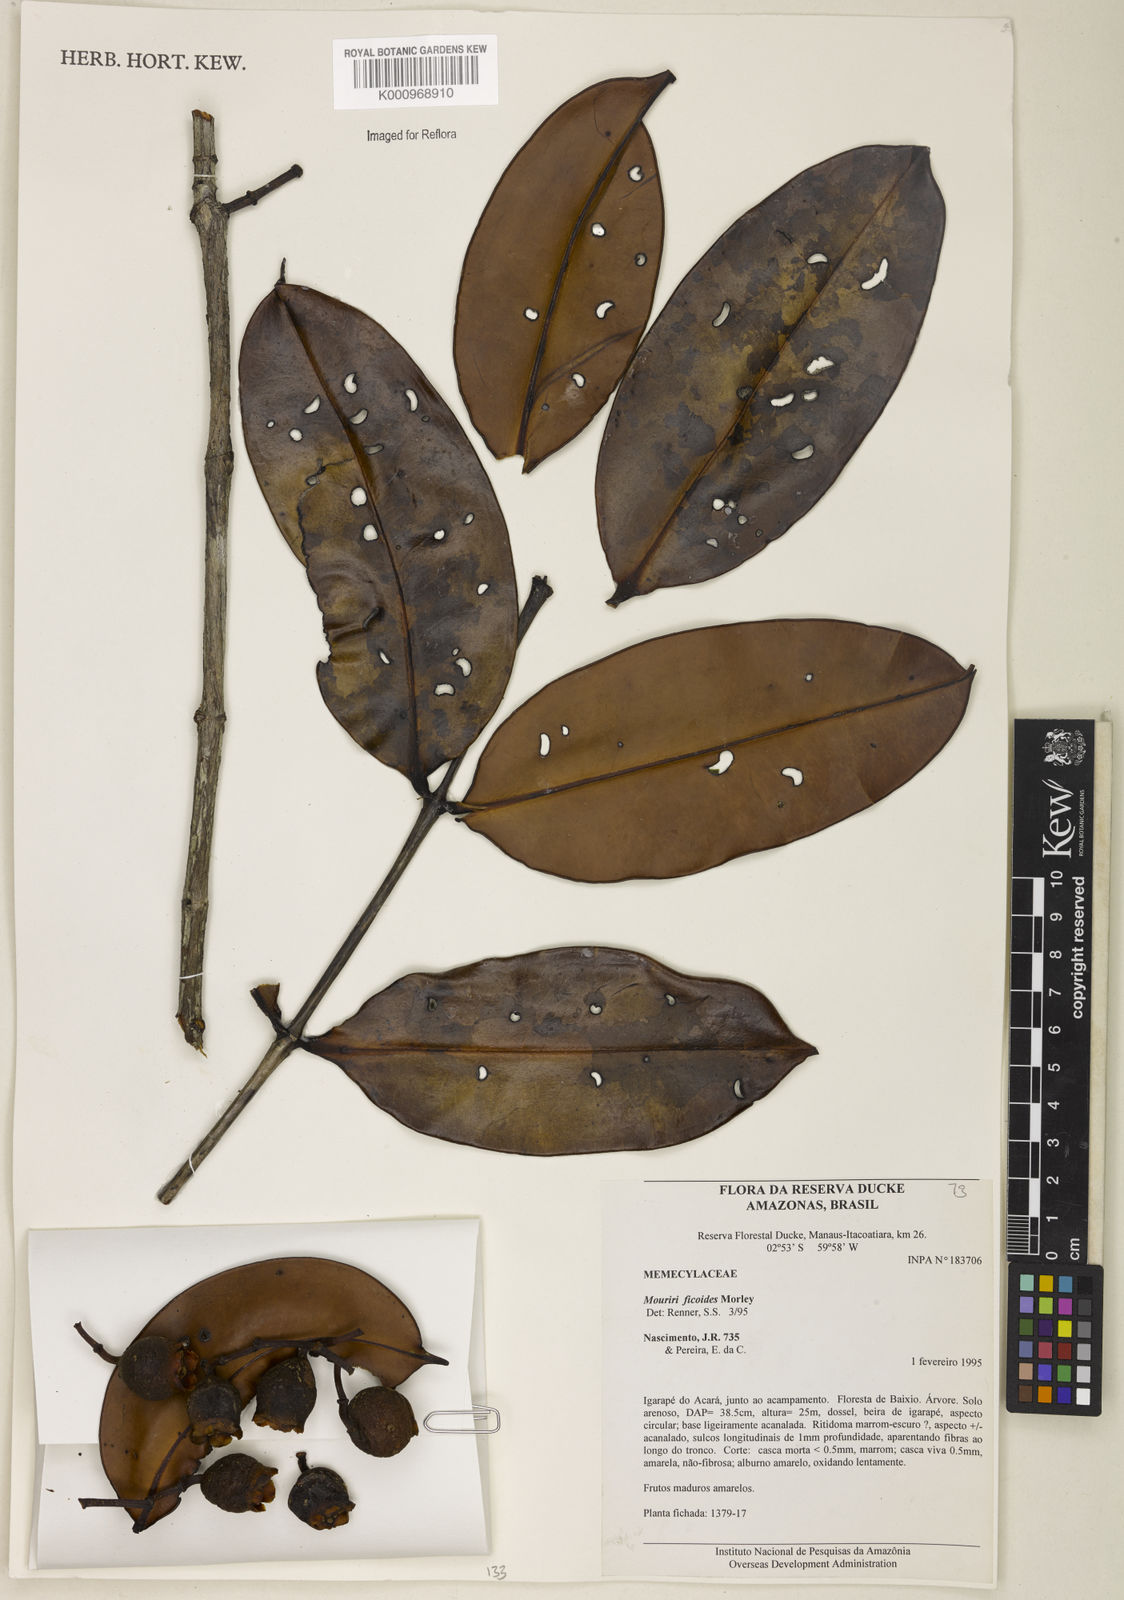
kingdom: Plantae
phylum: Tracheophyta
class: Magnoliopsida
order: Myrtales
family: Melastomataceae
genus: Mouriri
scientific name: Mouriri ficoides
